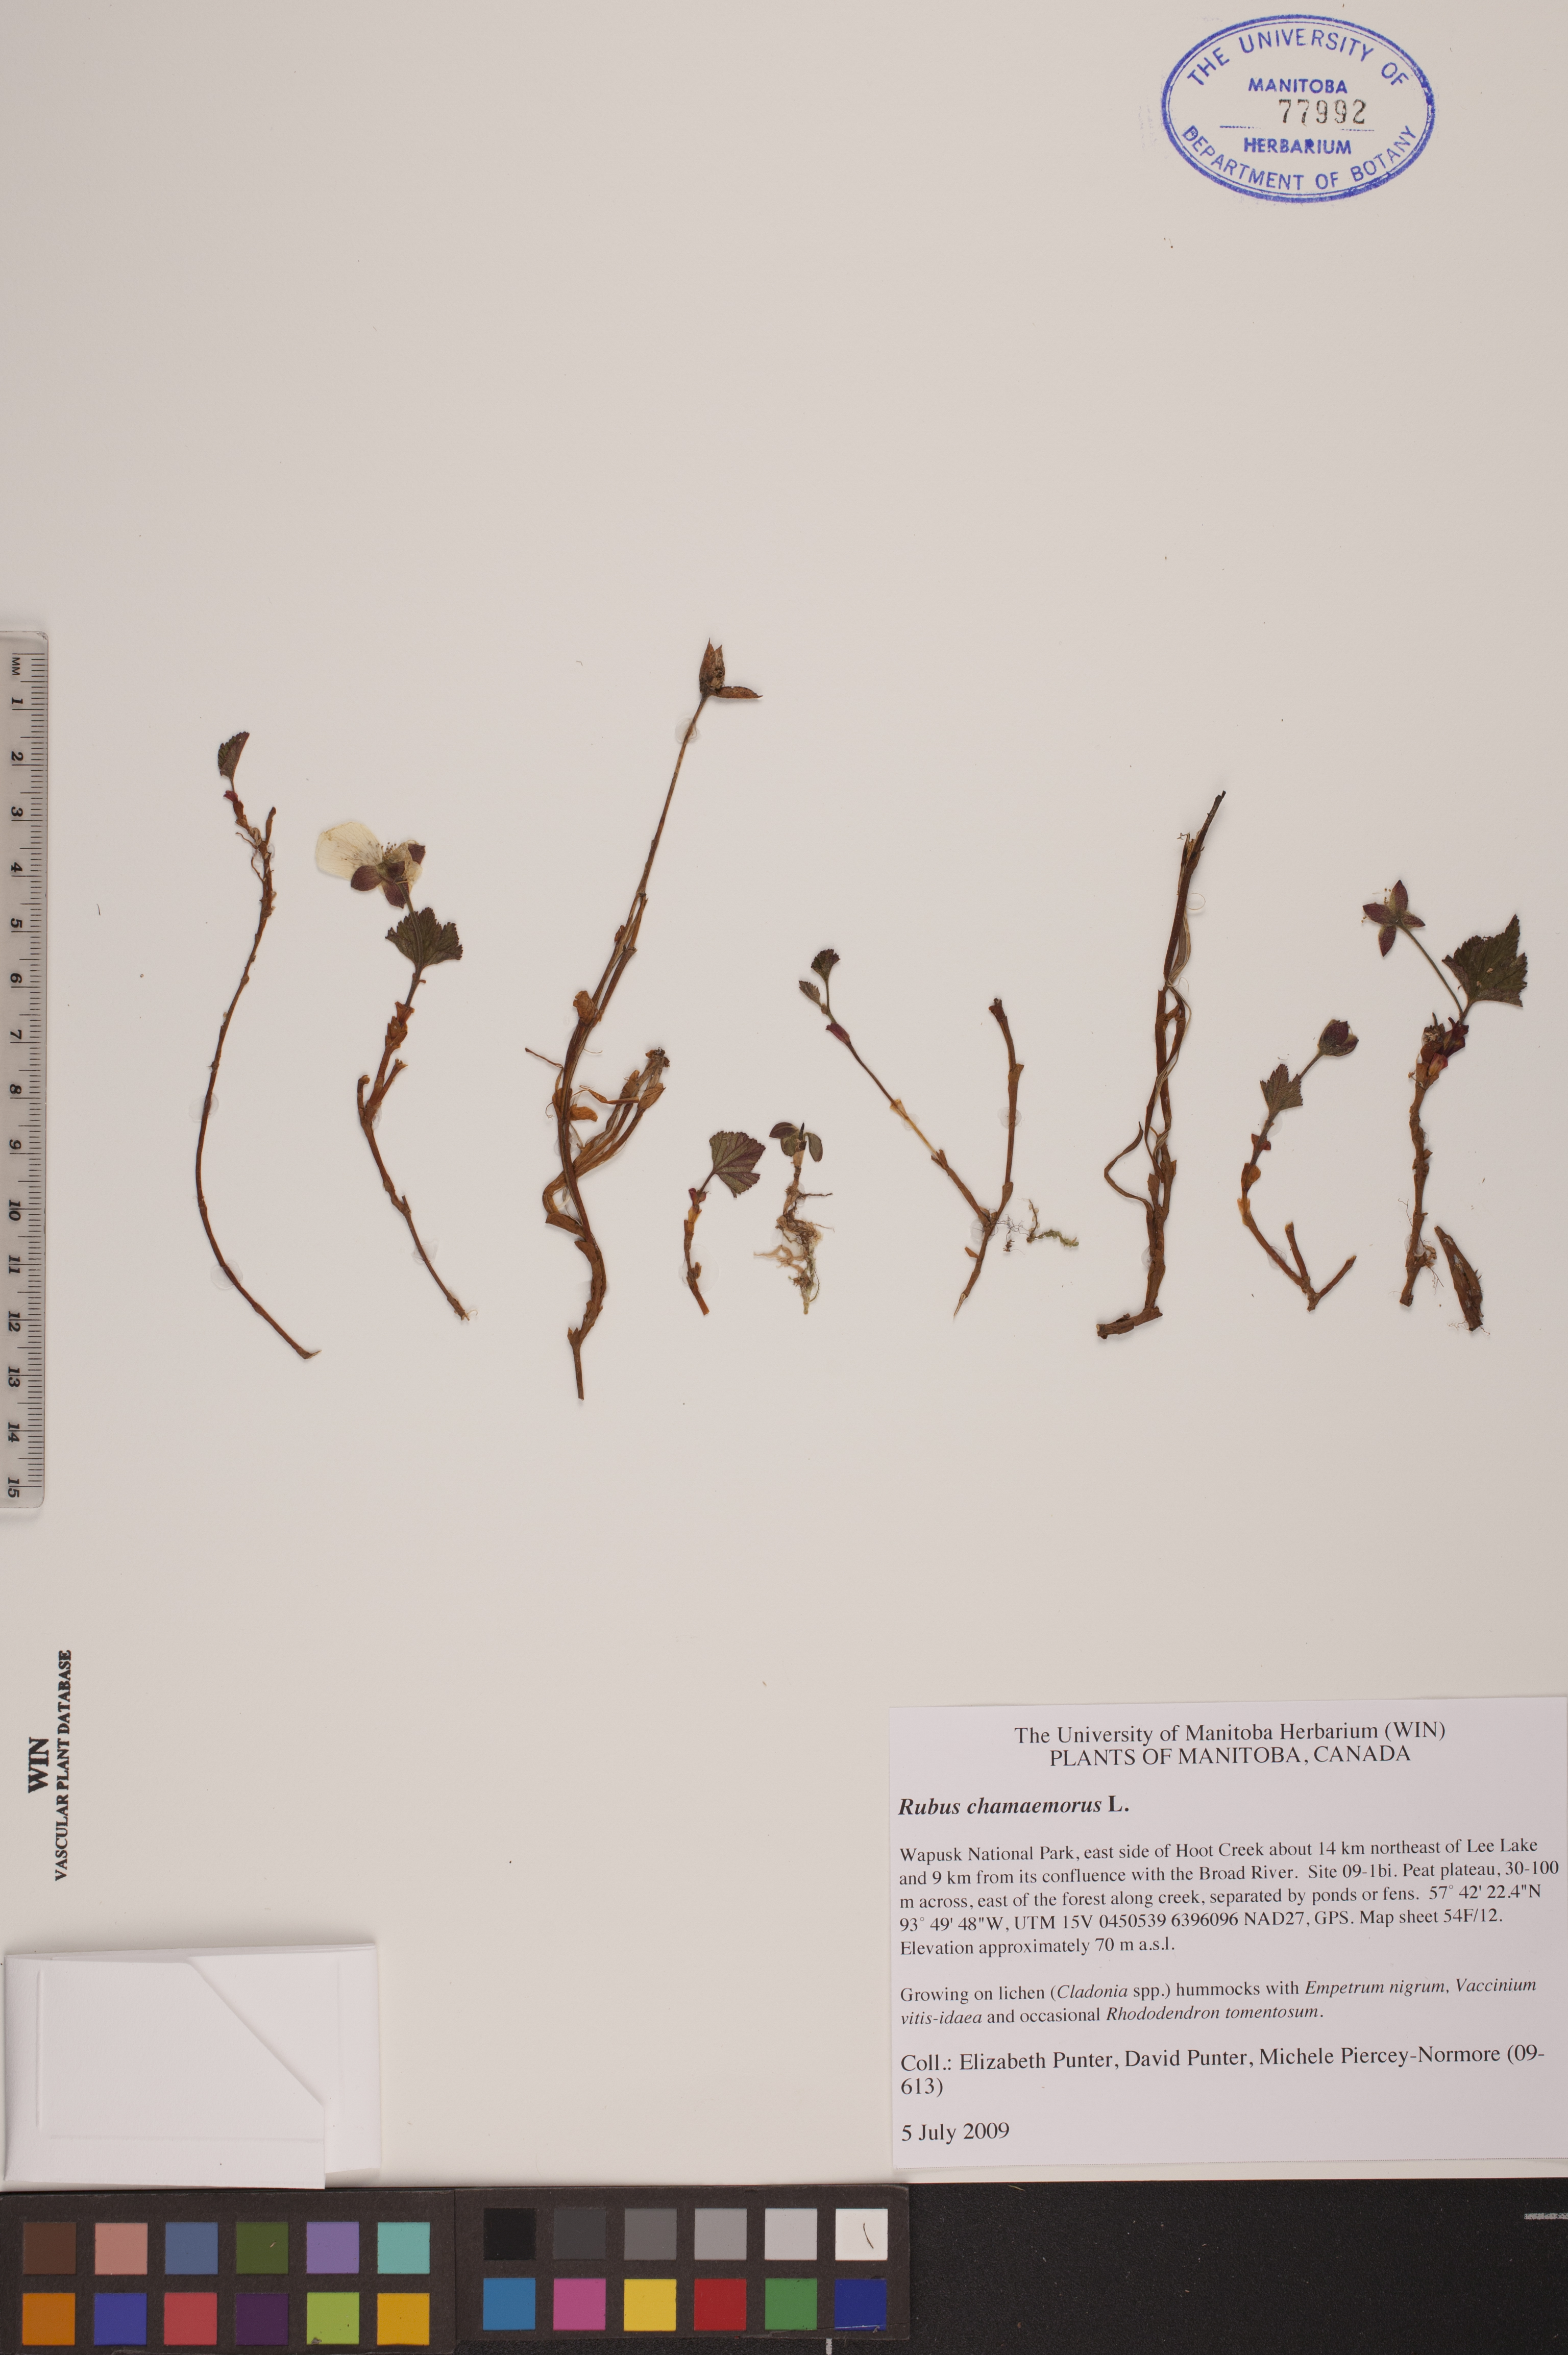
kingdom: Plantae
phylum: Tracheophyta
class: Magnoliopsida
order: Rosales
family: Rosaceae
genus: Rubus
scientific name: Rubus chamaemorus
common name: Cloudberry
